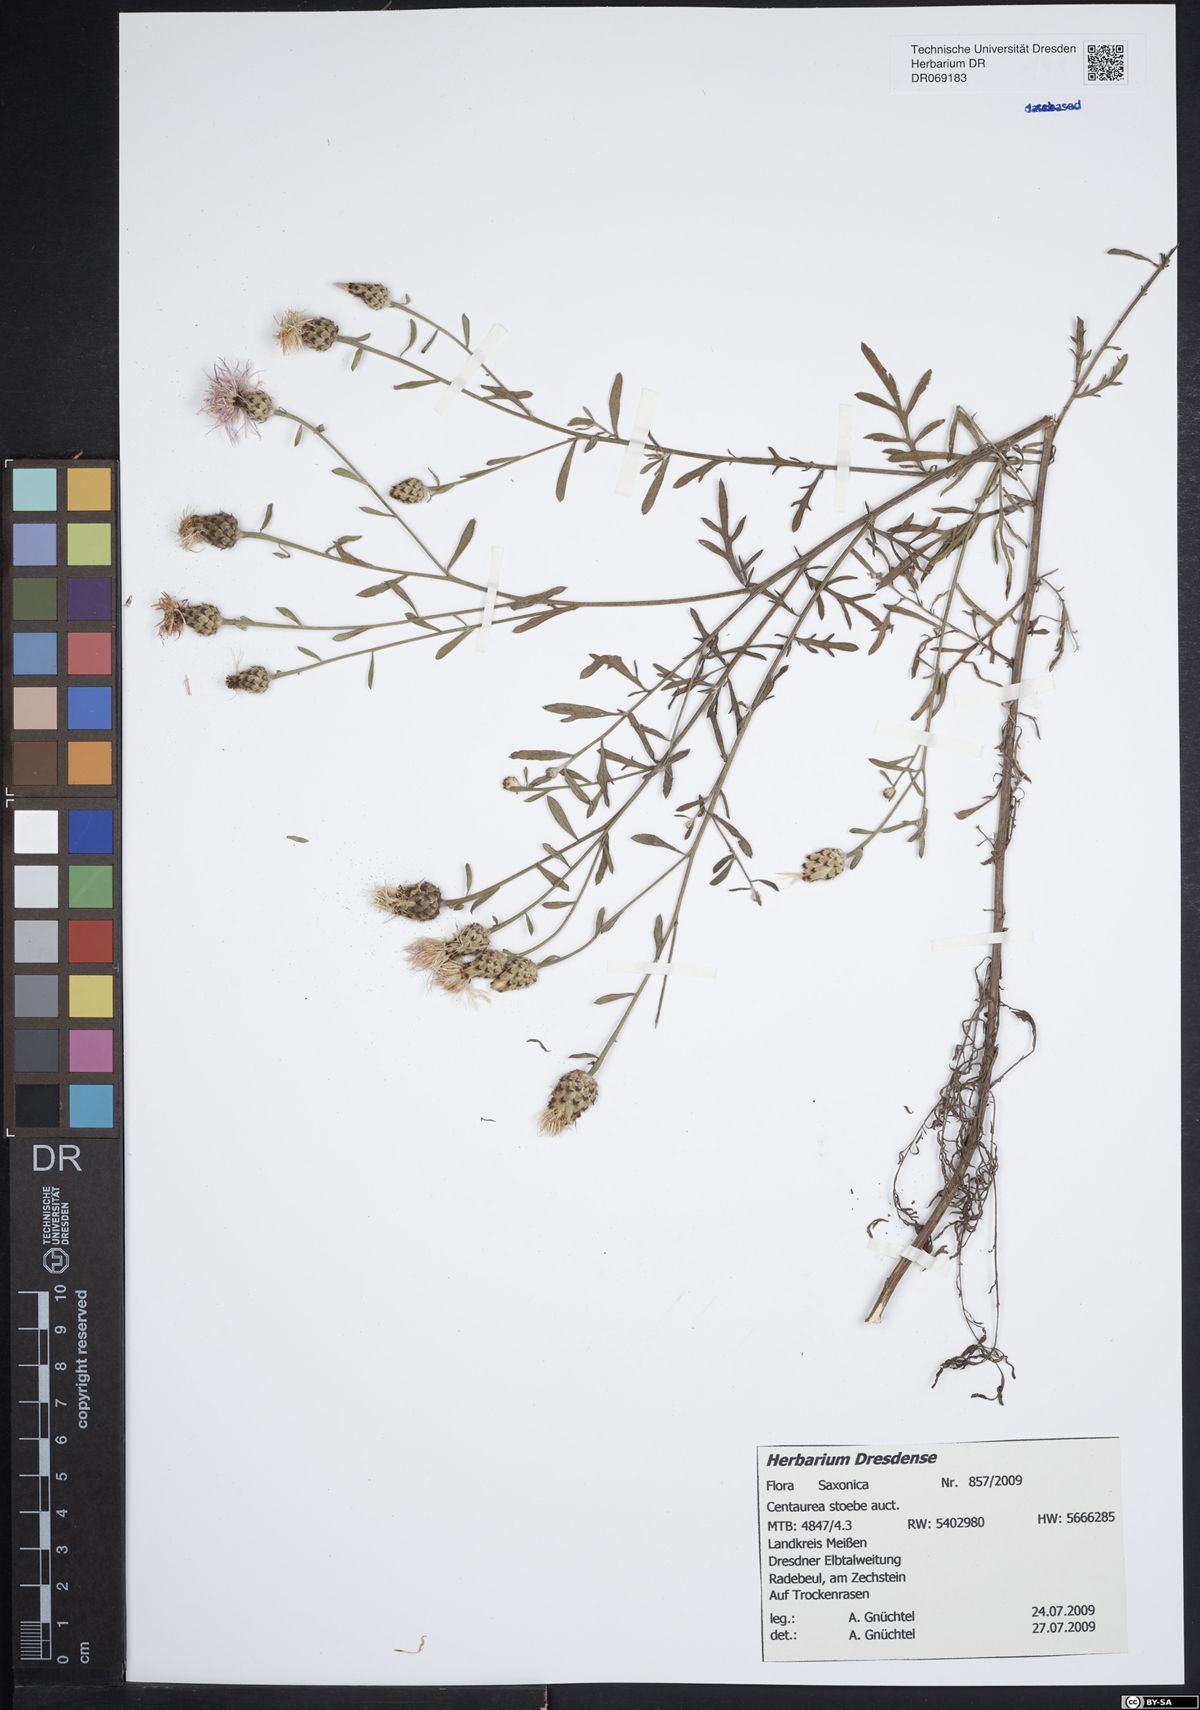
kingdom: Plantae
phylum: Tracheophyta
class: Magnoliopsida
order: Asterales
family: Asteraceae
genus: Centaurea
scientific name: Centaurea stoebe
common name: Spotted knapweed
